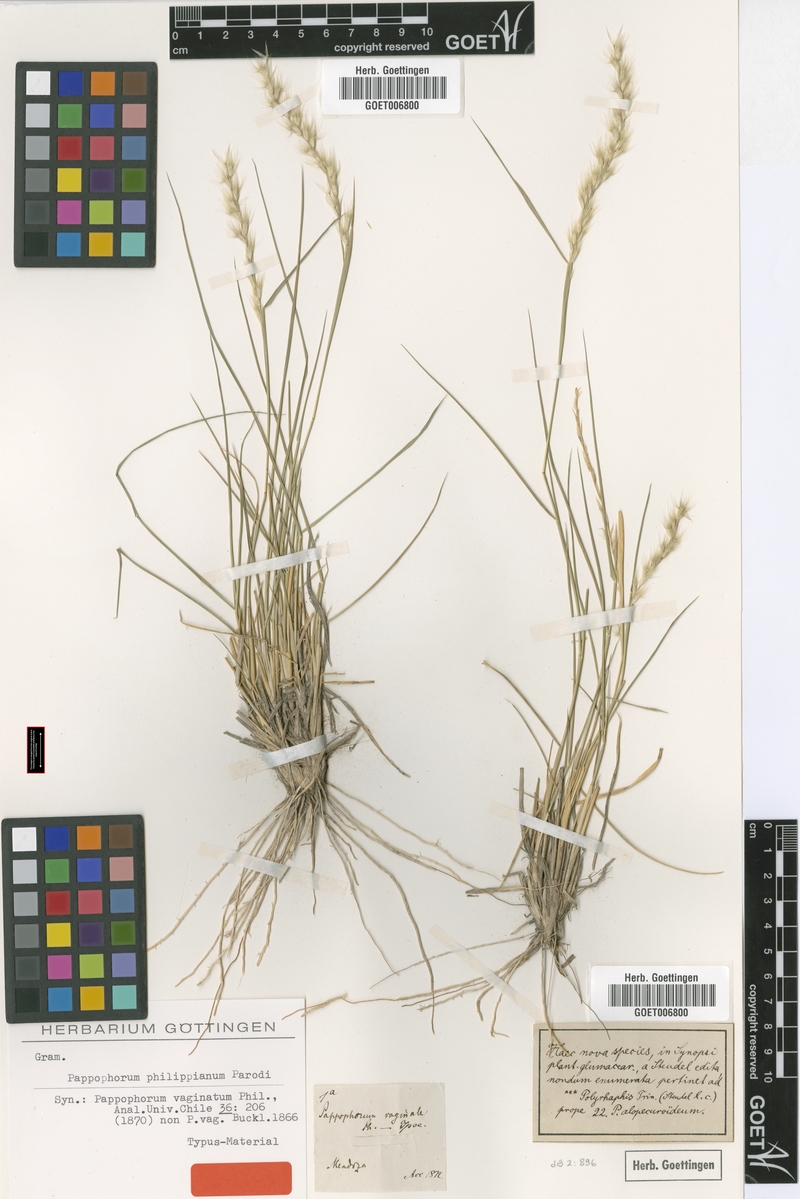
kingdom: Plantae
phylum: Tracheophyta
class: Liliopsida
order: Poales
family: Poaceae
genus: Pappophorum
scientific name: Pappophorum philippianum
